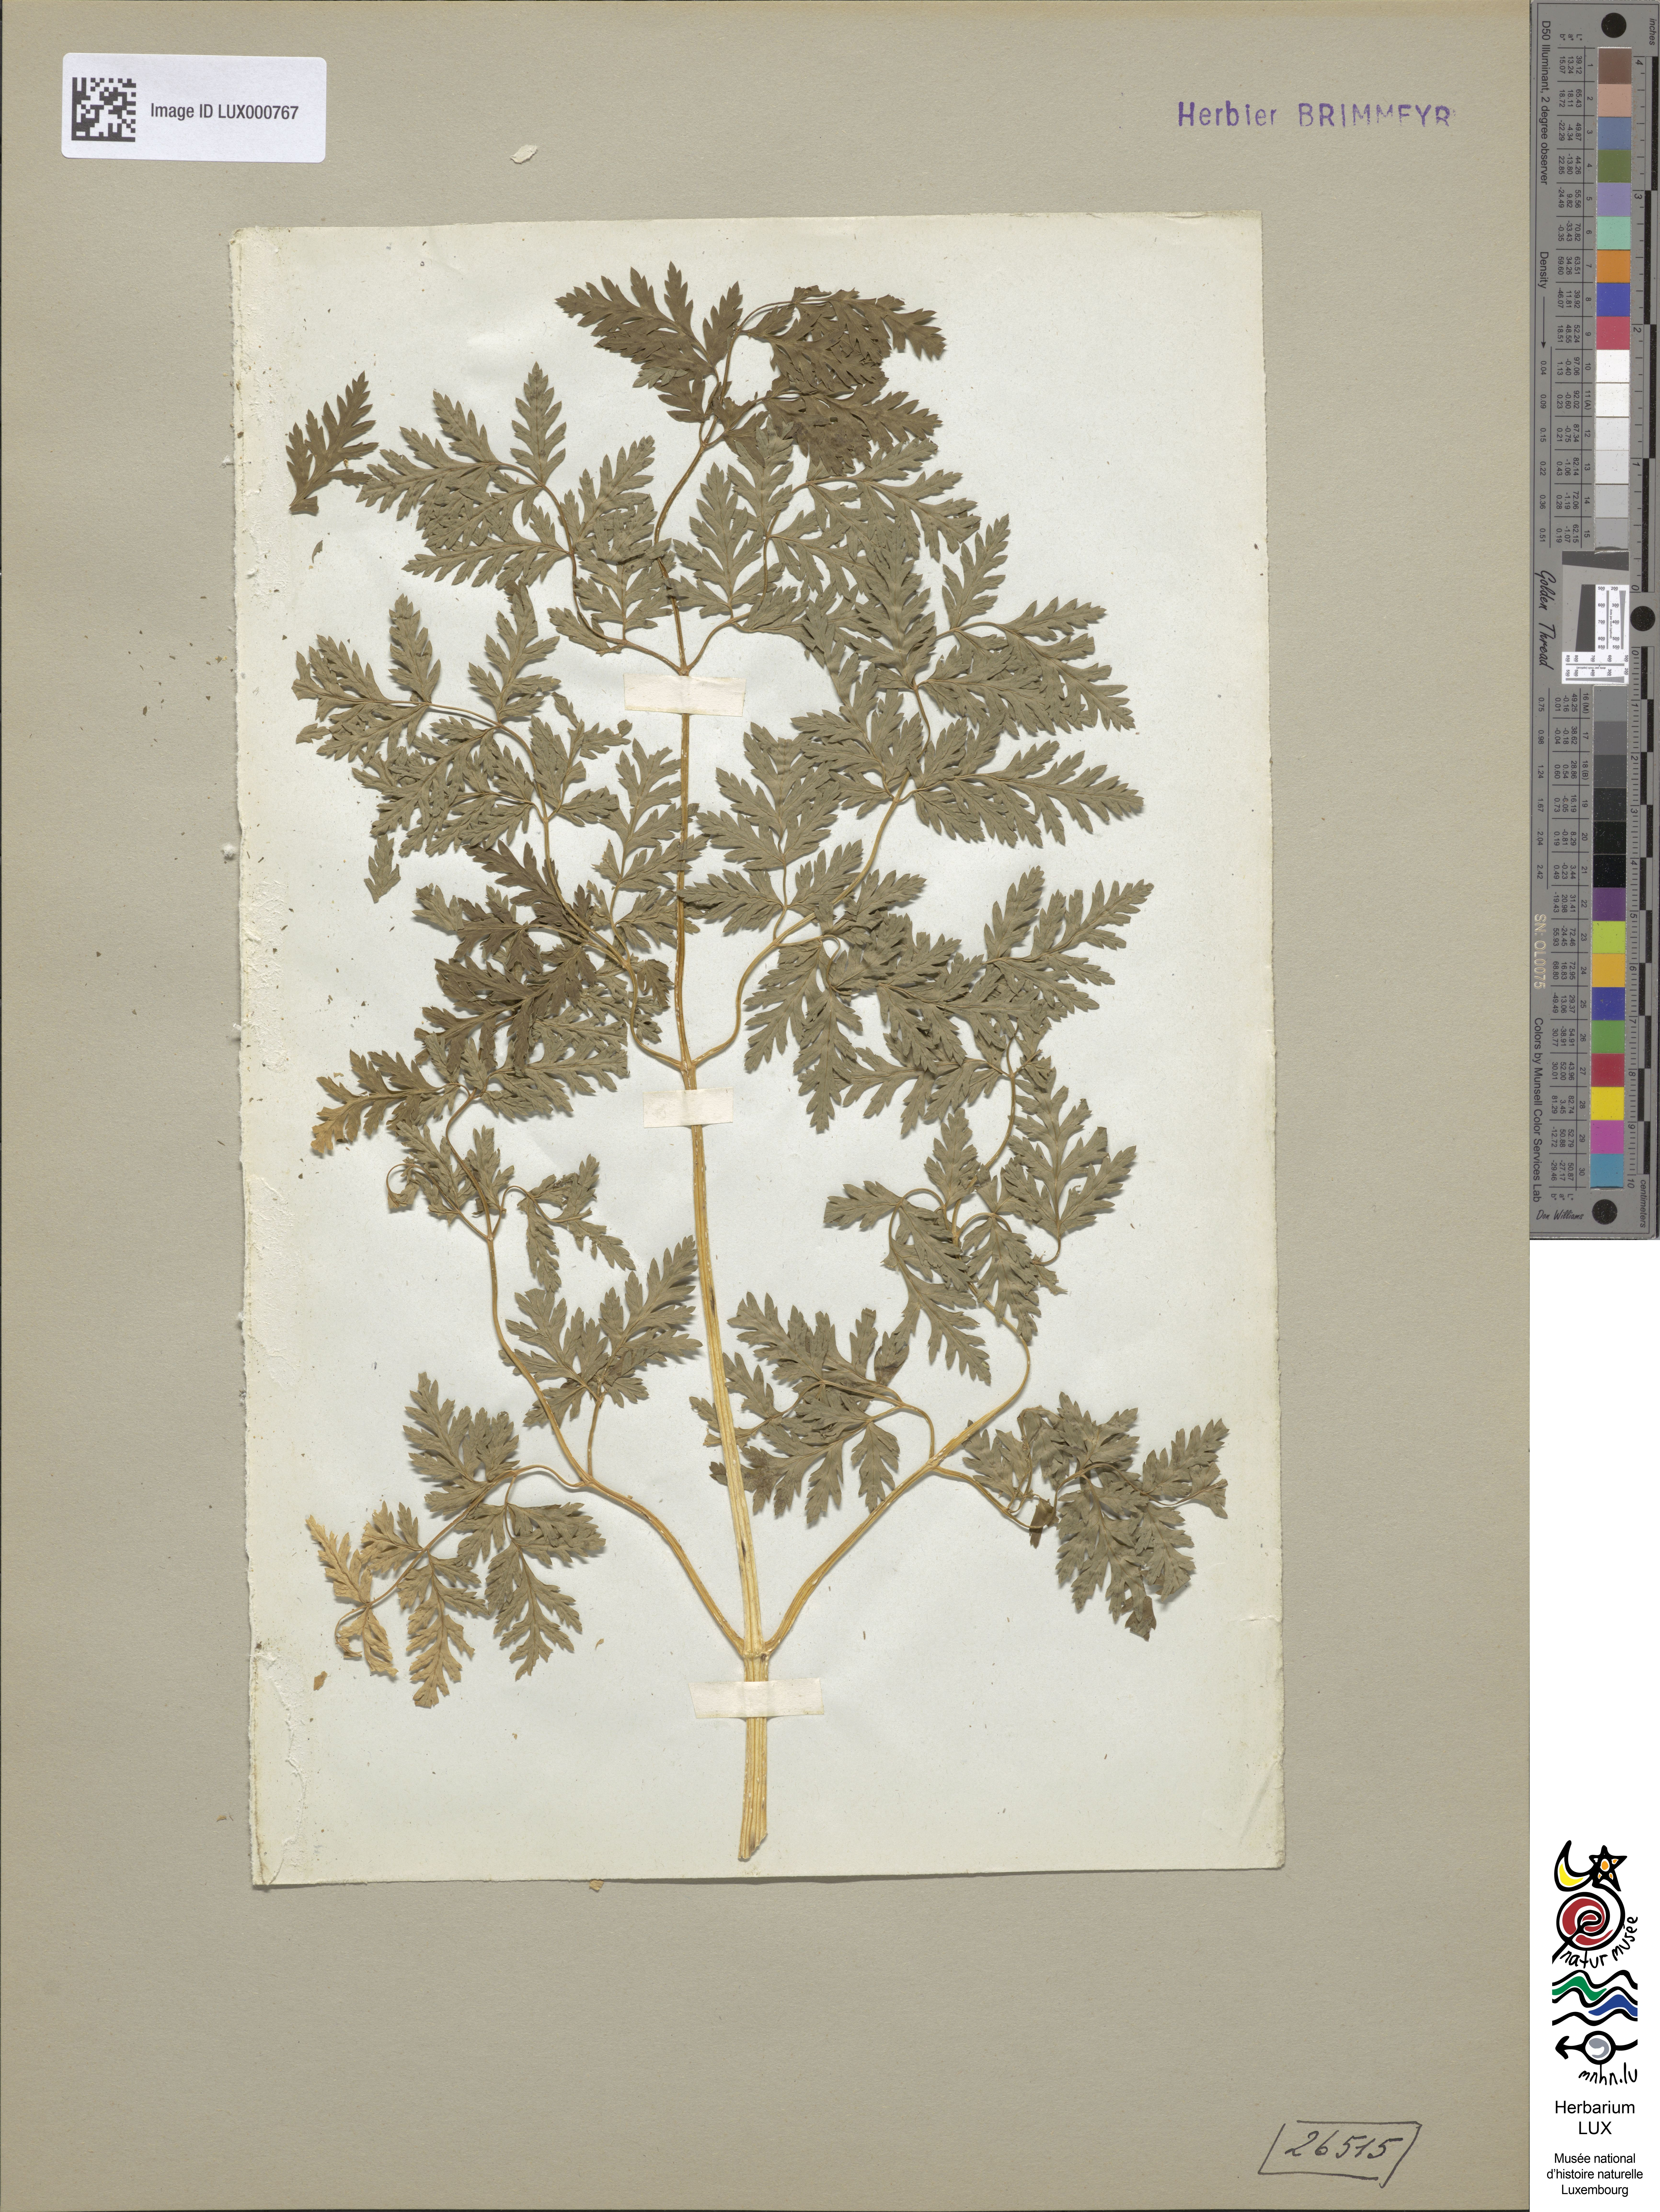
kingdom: Plantae
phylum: Tracheophyta
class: Magnoliopsida
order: Apiales
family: Apiaceae
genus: Conium
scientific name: Conium maculatum
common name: Hemlock
